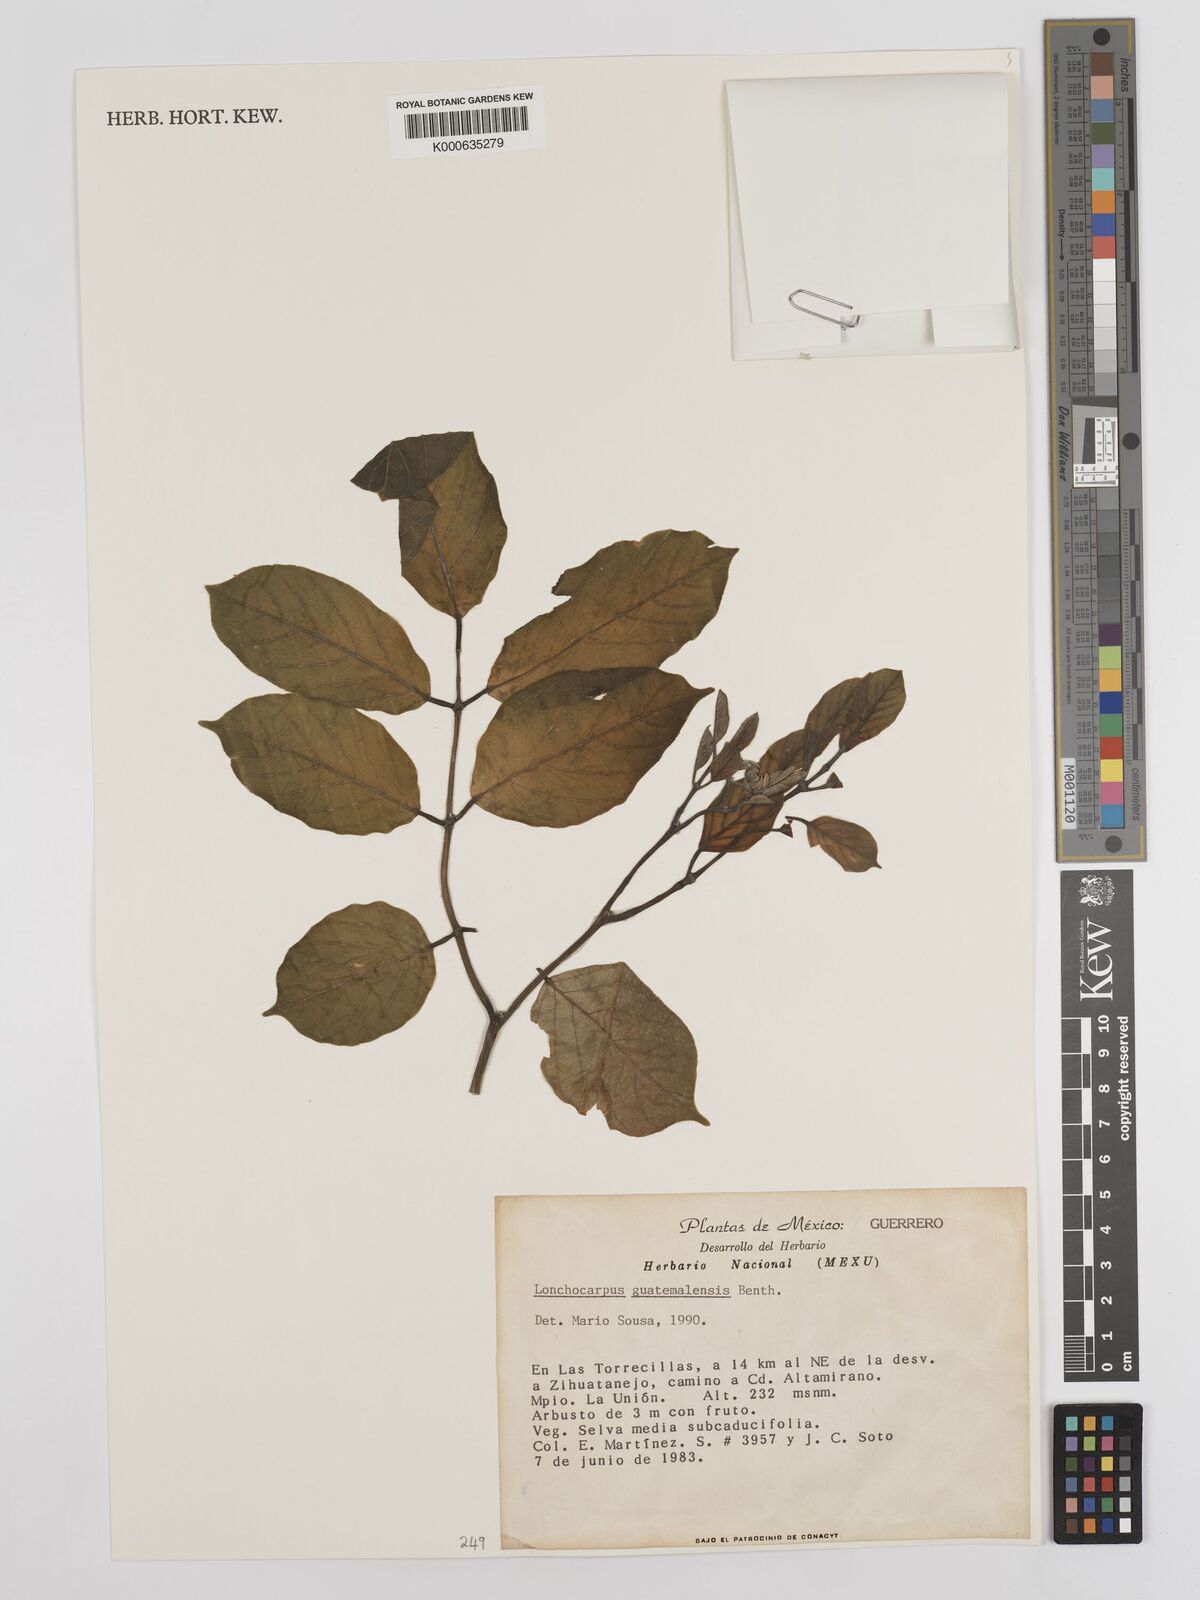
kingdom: Plantae
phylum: Tracheophyta
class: Magnoliopsida
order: Fabales
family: Fabaceae
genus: Lonchocarpus
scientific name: Lonchocarpus guatemalensis
